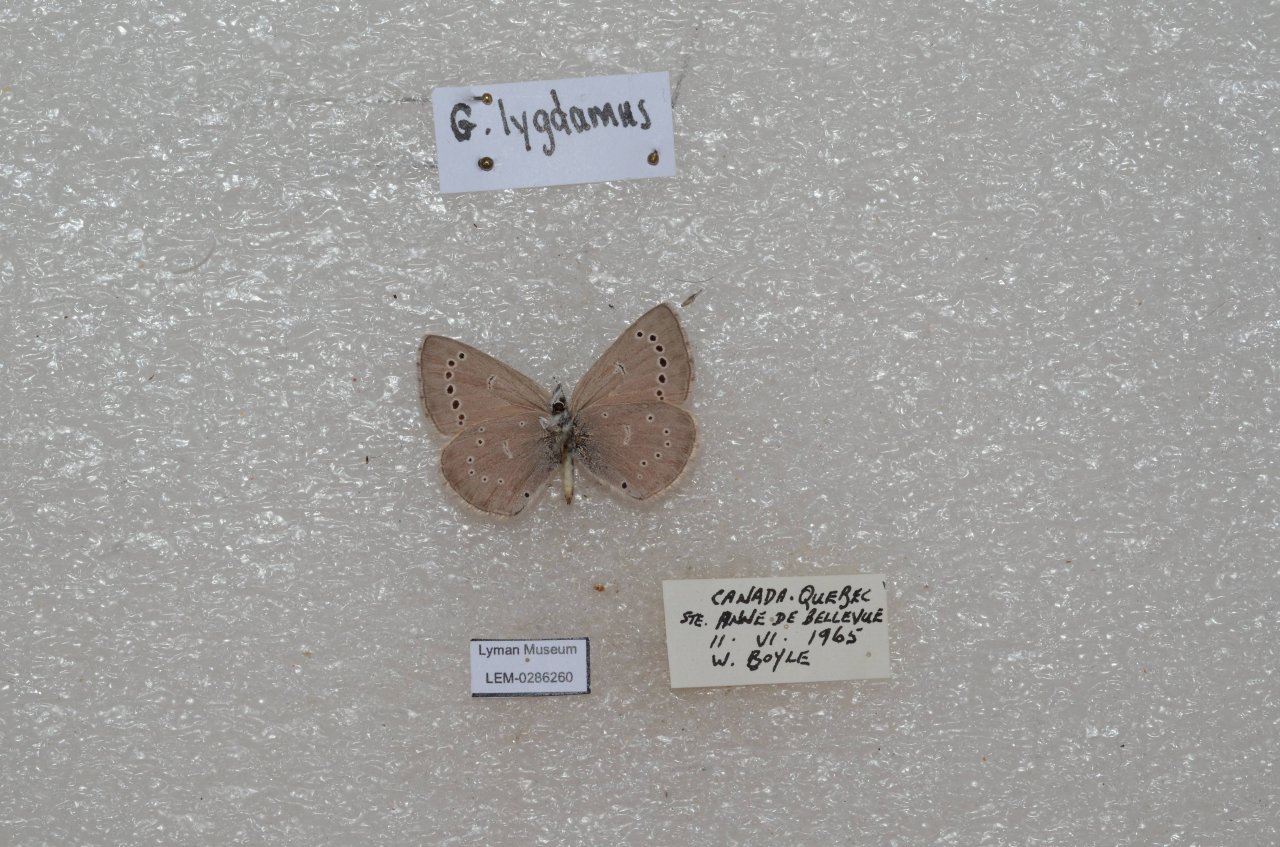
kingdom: Animalia
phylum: Arthropoda
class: Insecta
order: Lepidoptera
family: Lycaenidae
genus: Glaucopsyche
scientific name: Glaucopsyche lygdamus
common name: Silvery Blue
